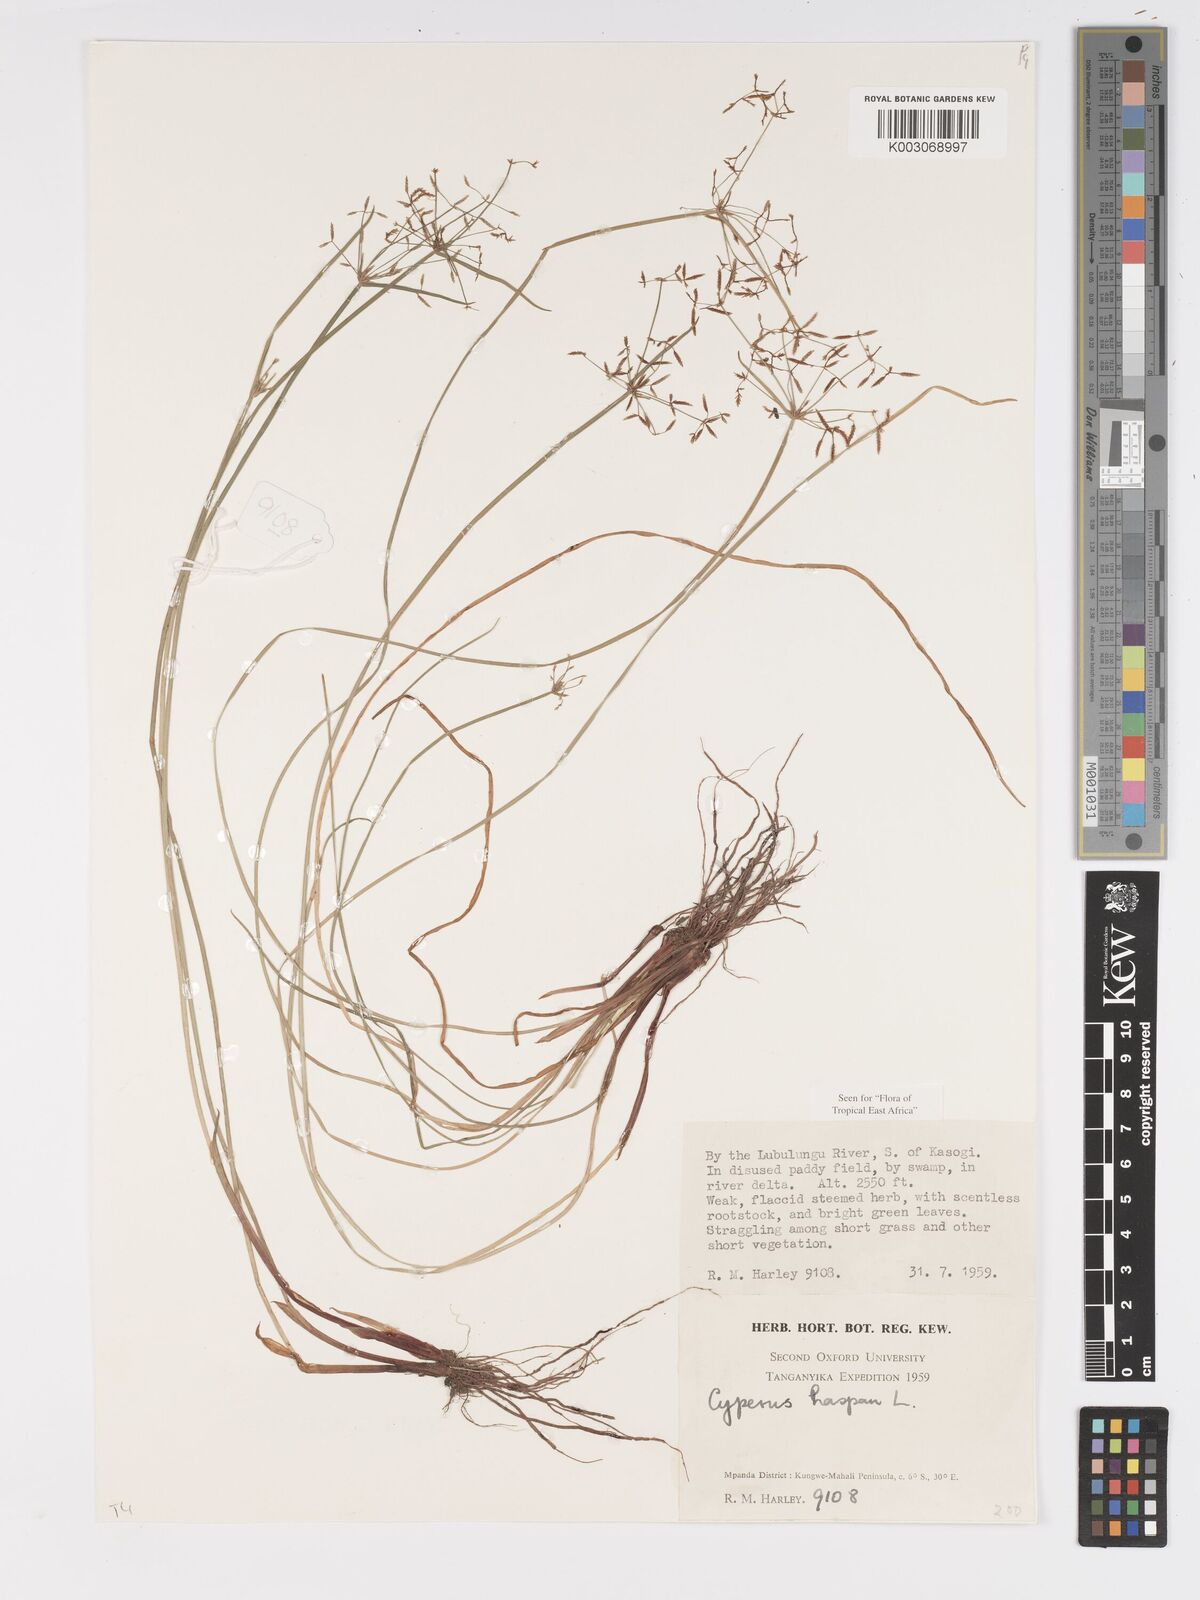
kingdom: Plantae
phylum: Tracheophyta
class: Liliopsida
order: Poales
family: Cyperaceae
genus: Cyperus
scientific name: Cyperus haspan
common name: Haspan flatsedge
